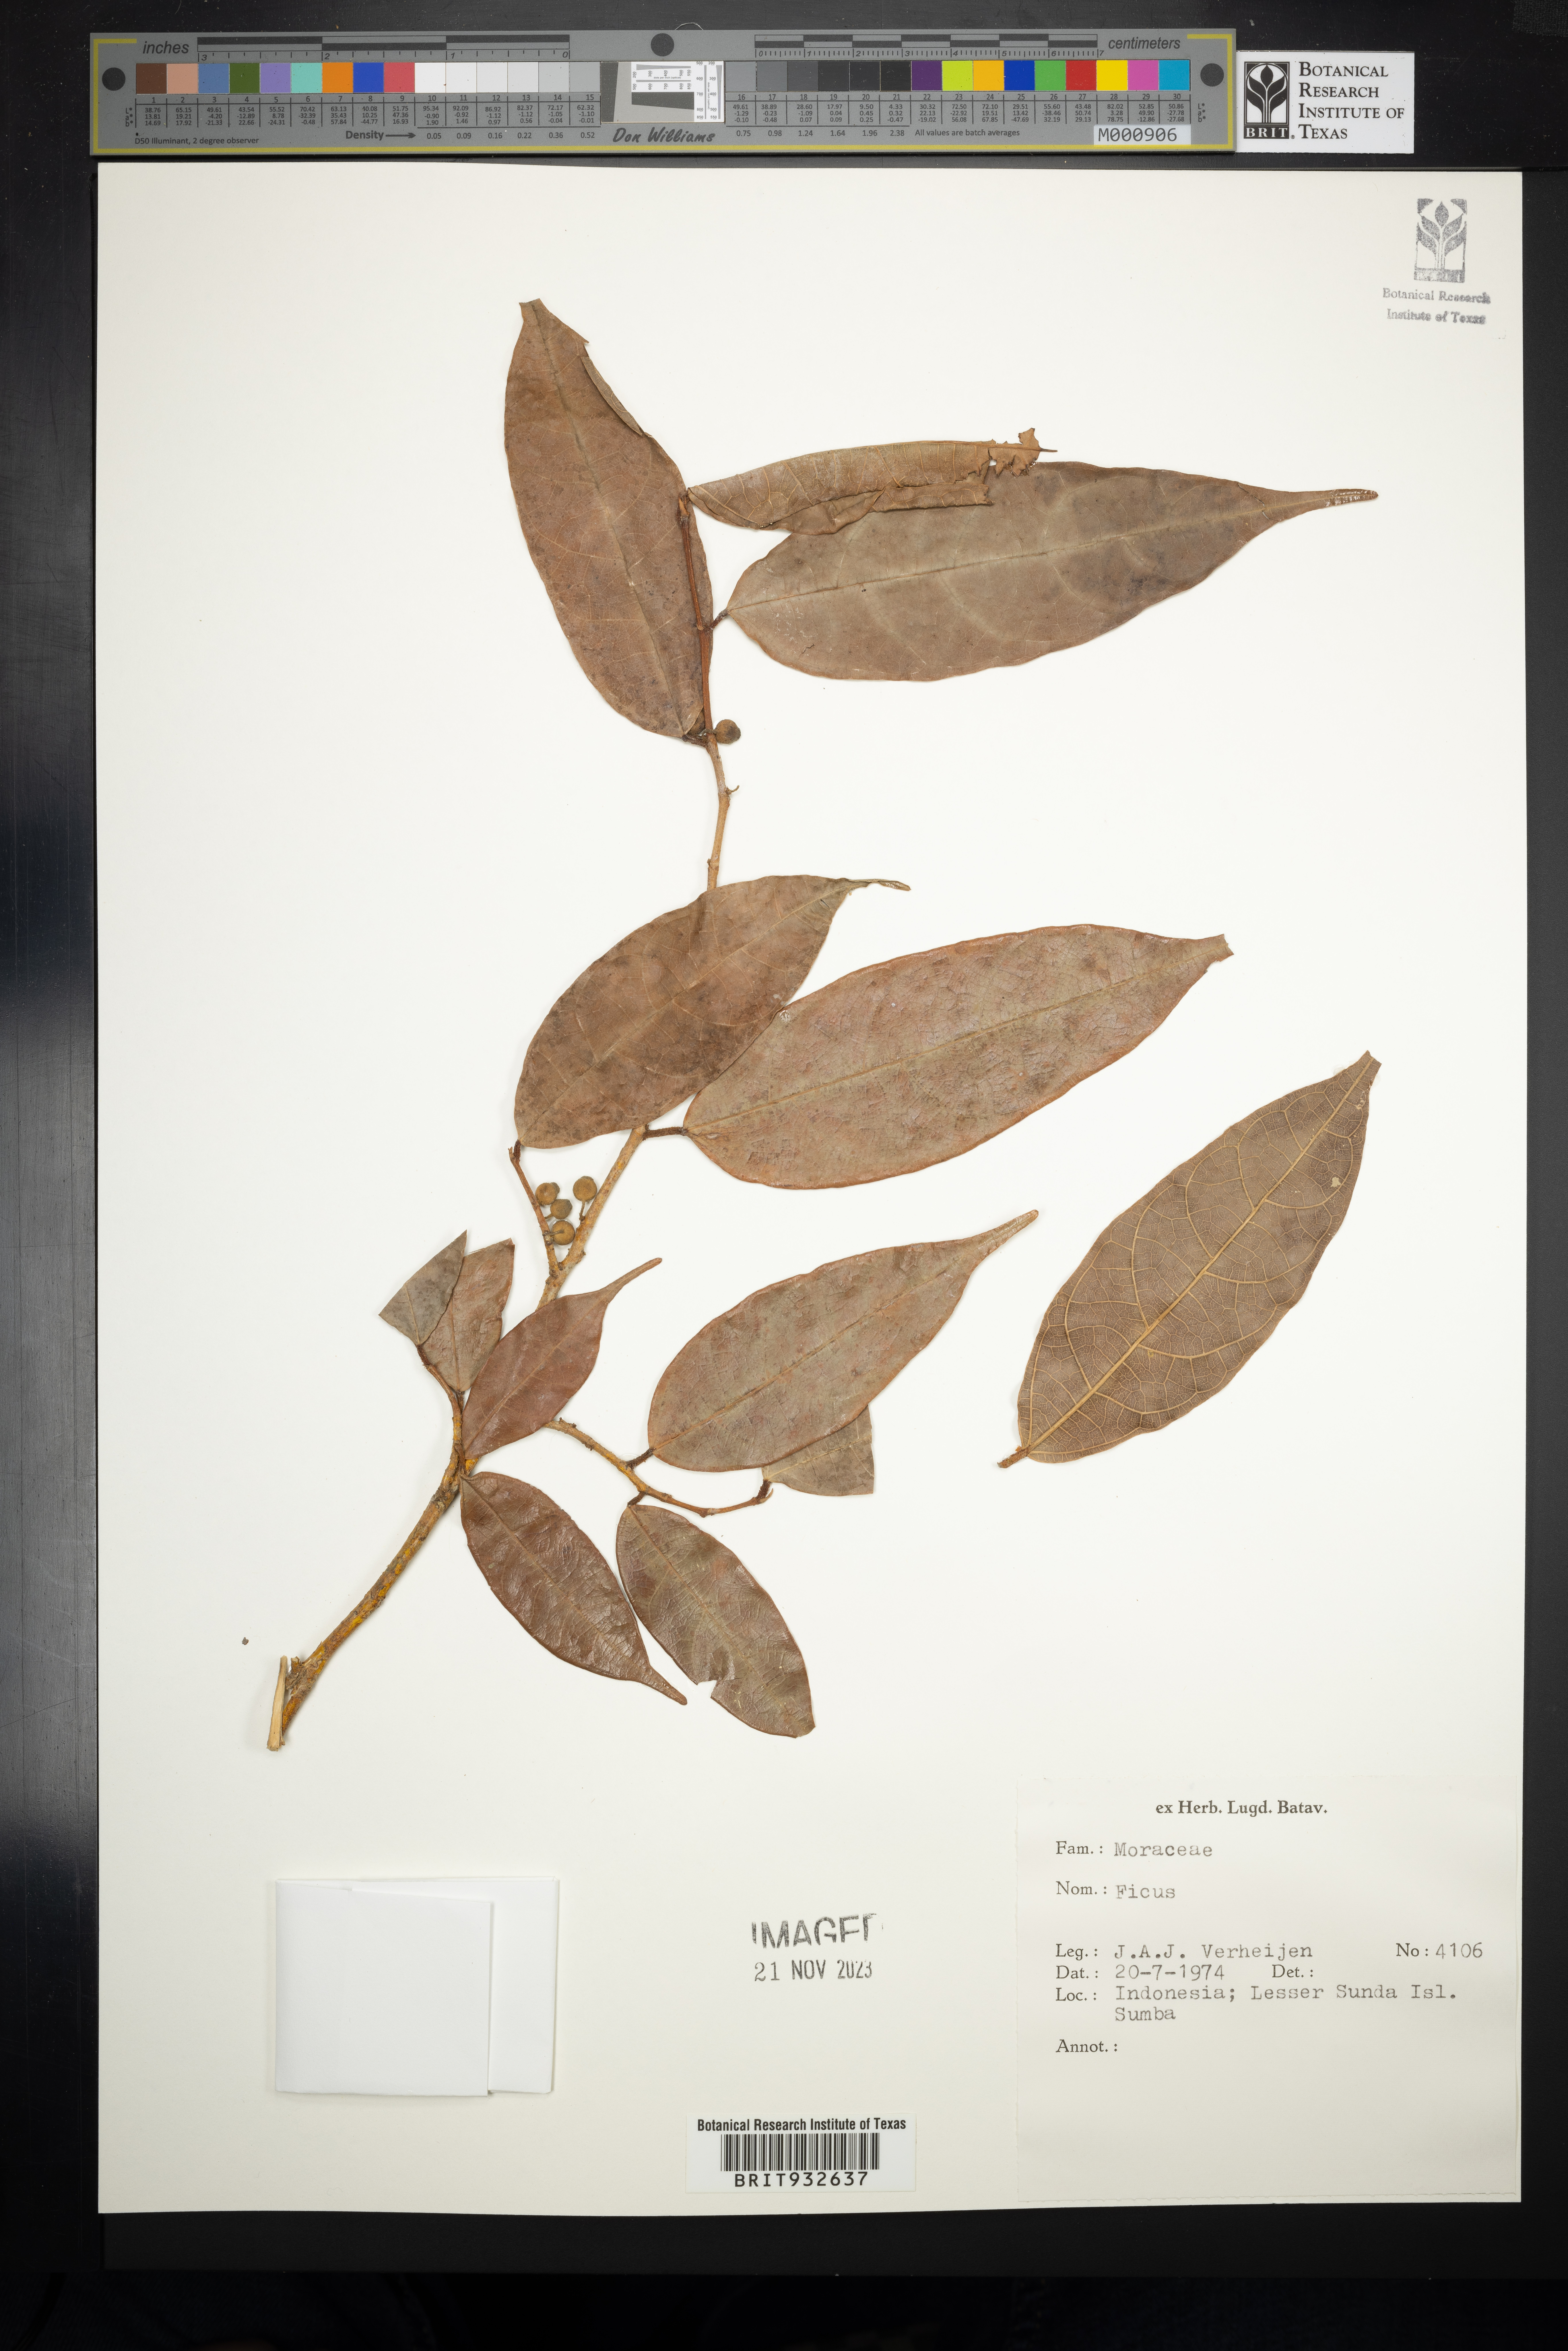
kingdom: Plantae
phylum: Tracheophyta
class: Magnoliopsida
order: Rosales
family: Moraceae
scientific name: Moraceae
